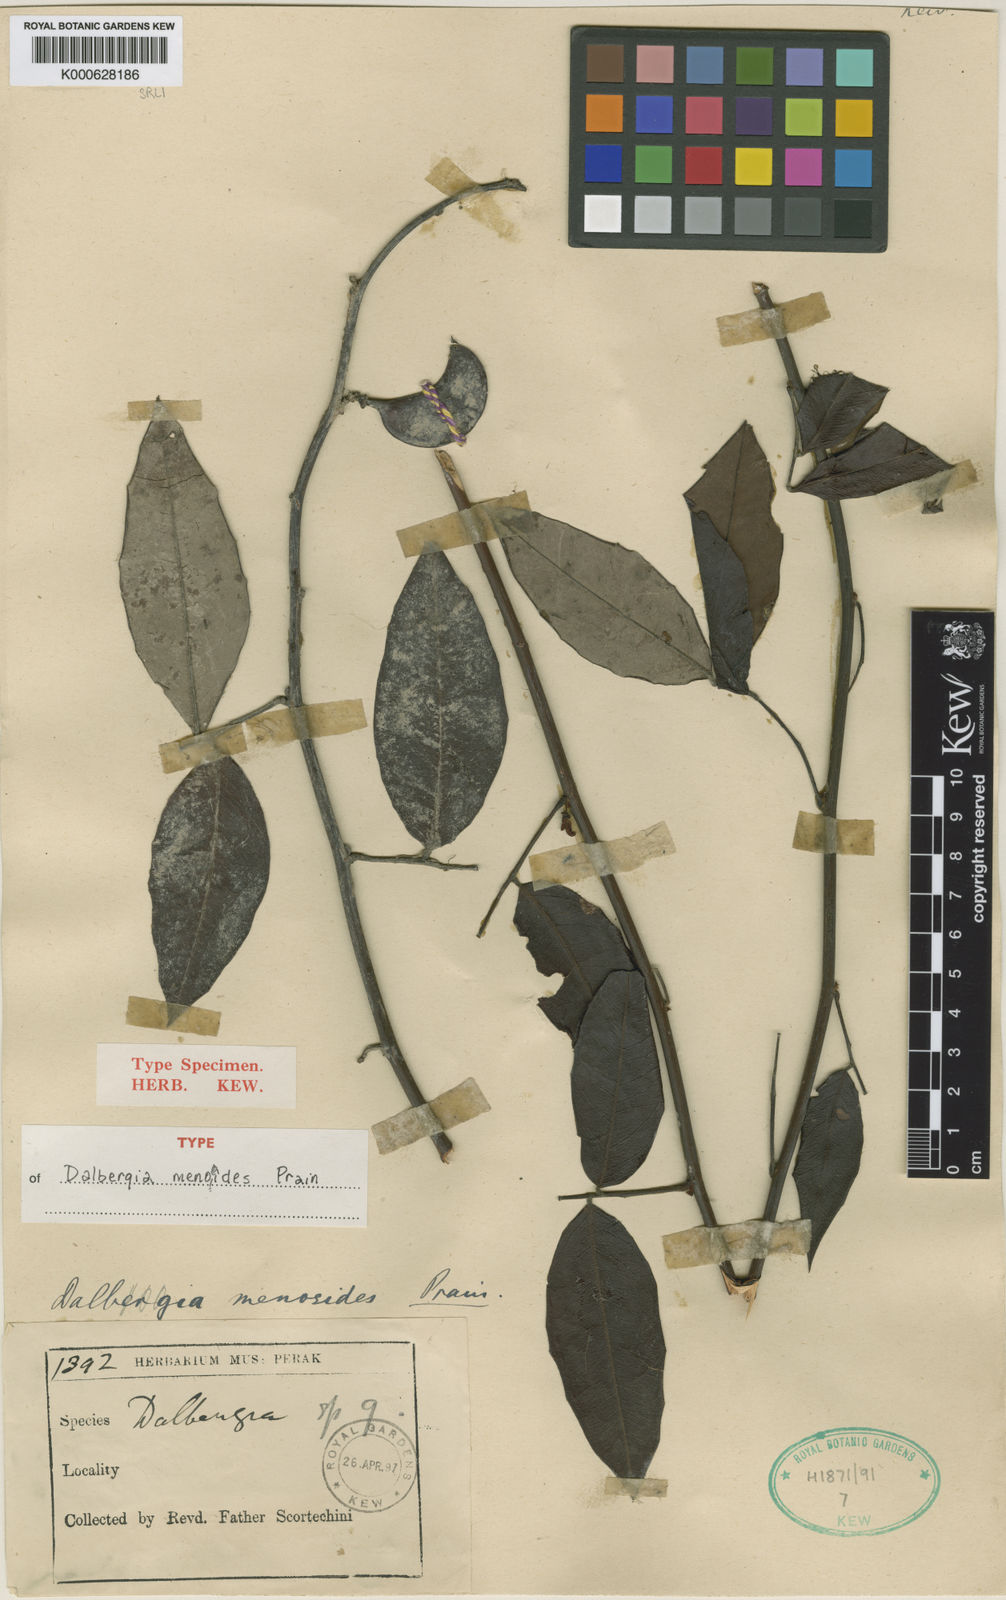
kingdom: Plantae
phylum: Tracheophyta
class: Magnoliopsida
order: Fabales
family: Fabaceae
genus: Dalbergia
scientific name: Dalbergia menoeides
